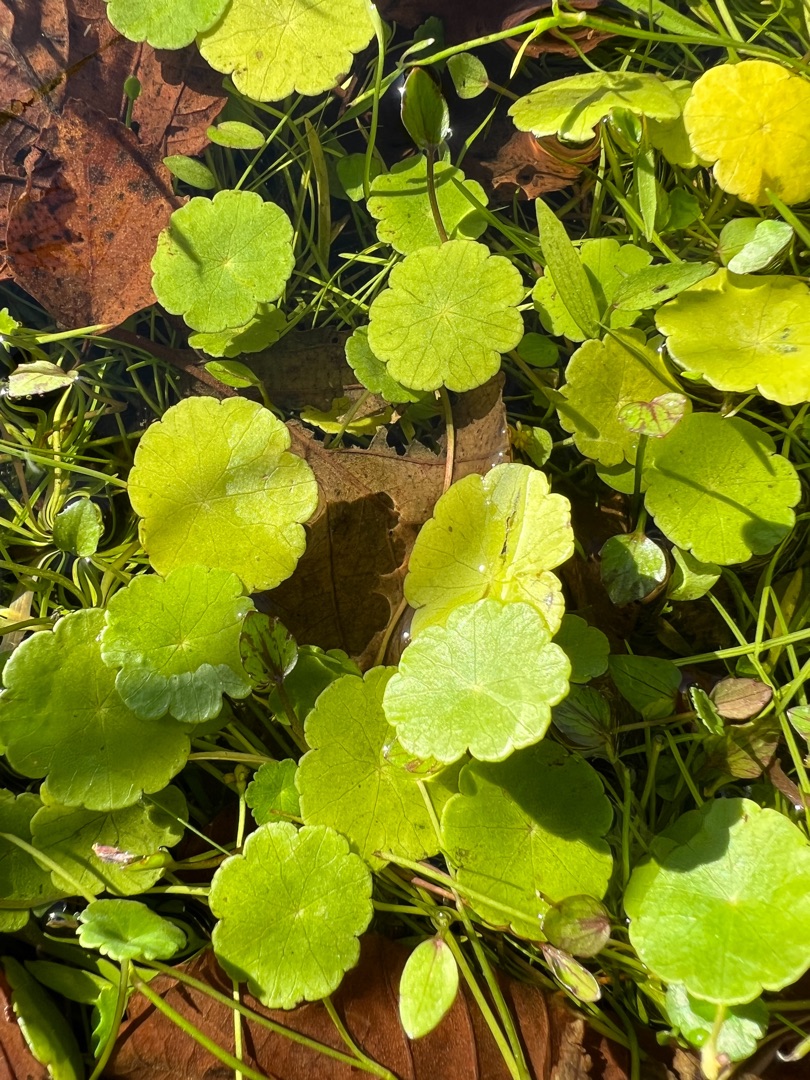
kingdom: Plantae
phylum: Tracheophyta
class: Magnoliopsida
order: Apiales
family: Araliaceae
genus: Hydrocotyle
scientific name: Hydrocotyle vulgaris
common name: Vandnavle
